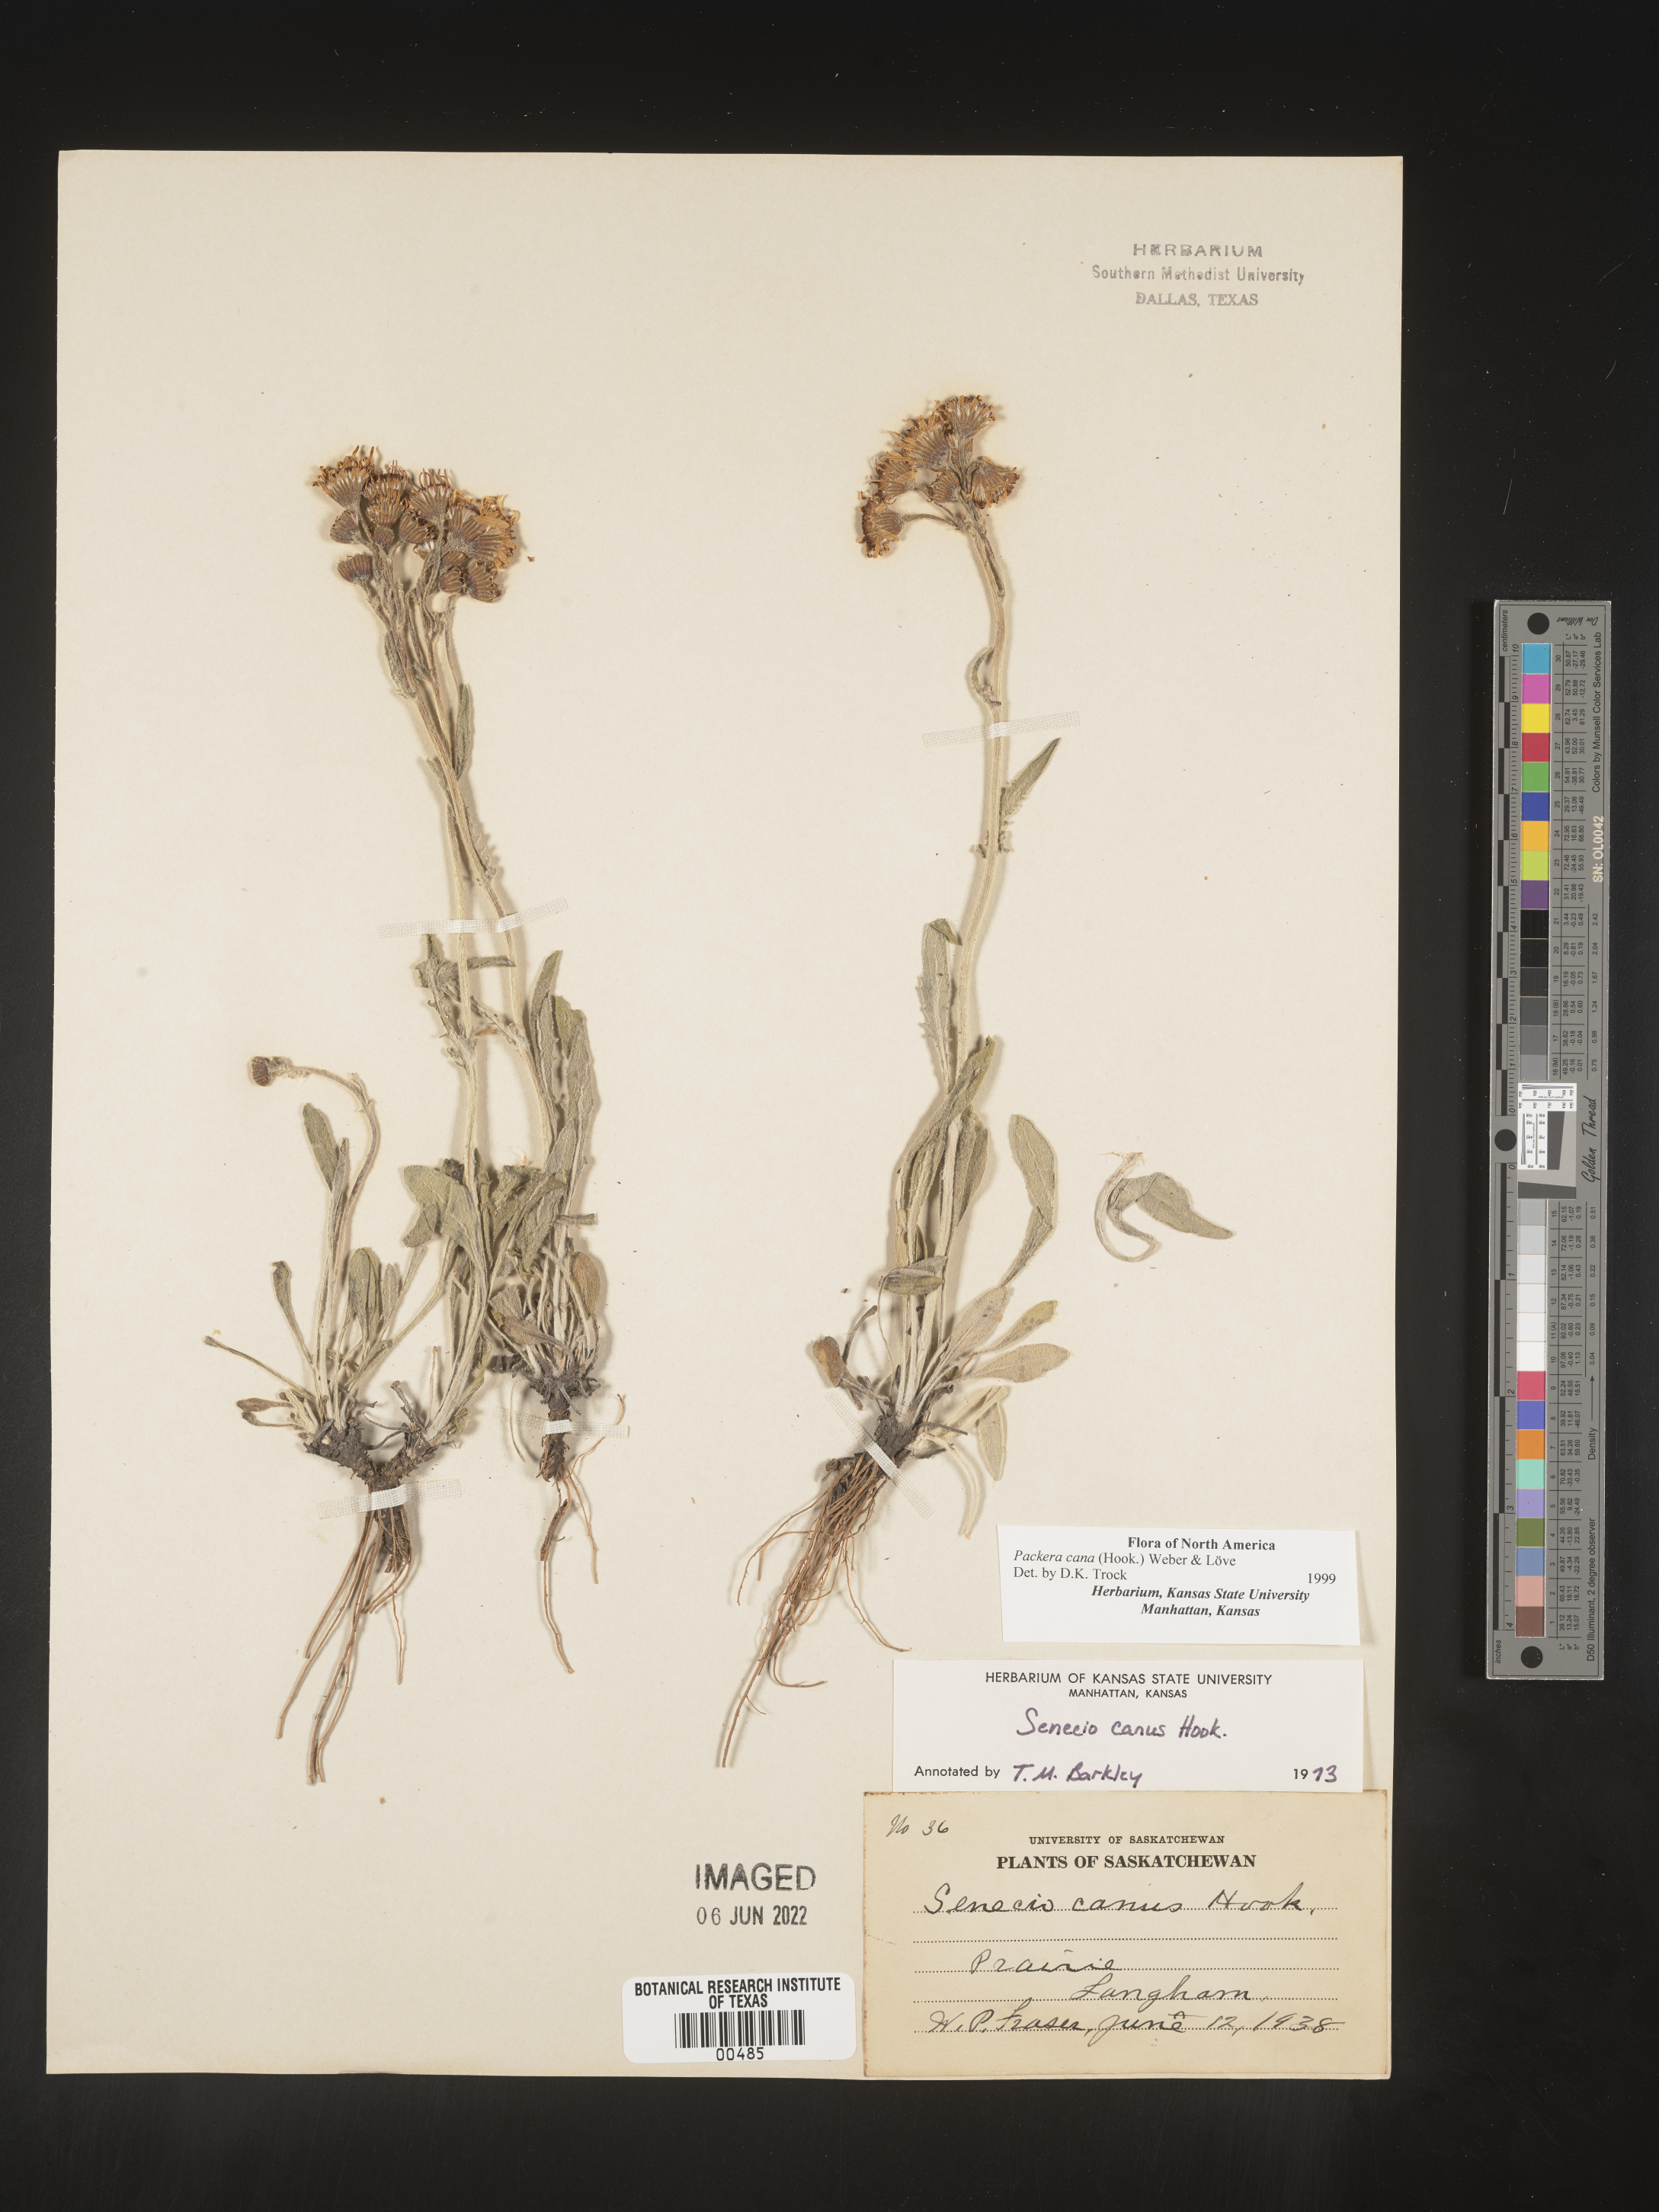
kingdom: Plantae
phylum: Tracheophyta
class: Magnoliopsida
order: Asterales
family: Asteraceae
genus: Packera
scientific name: Packera cana
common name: Woolly groundsel
